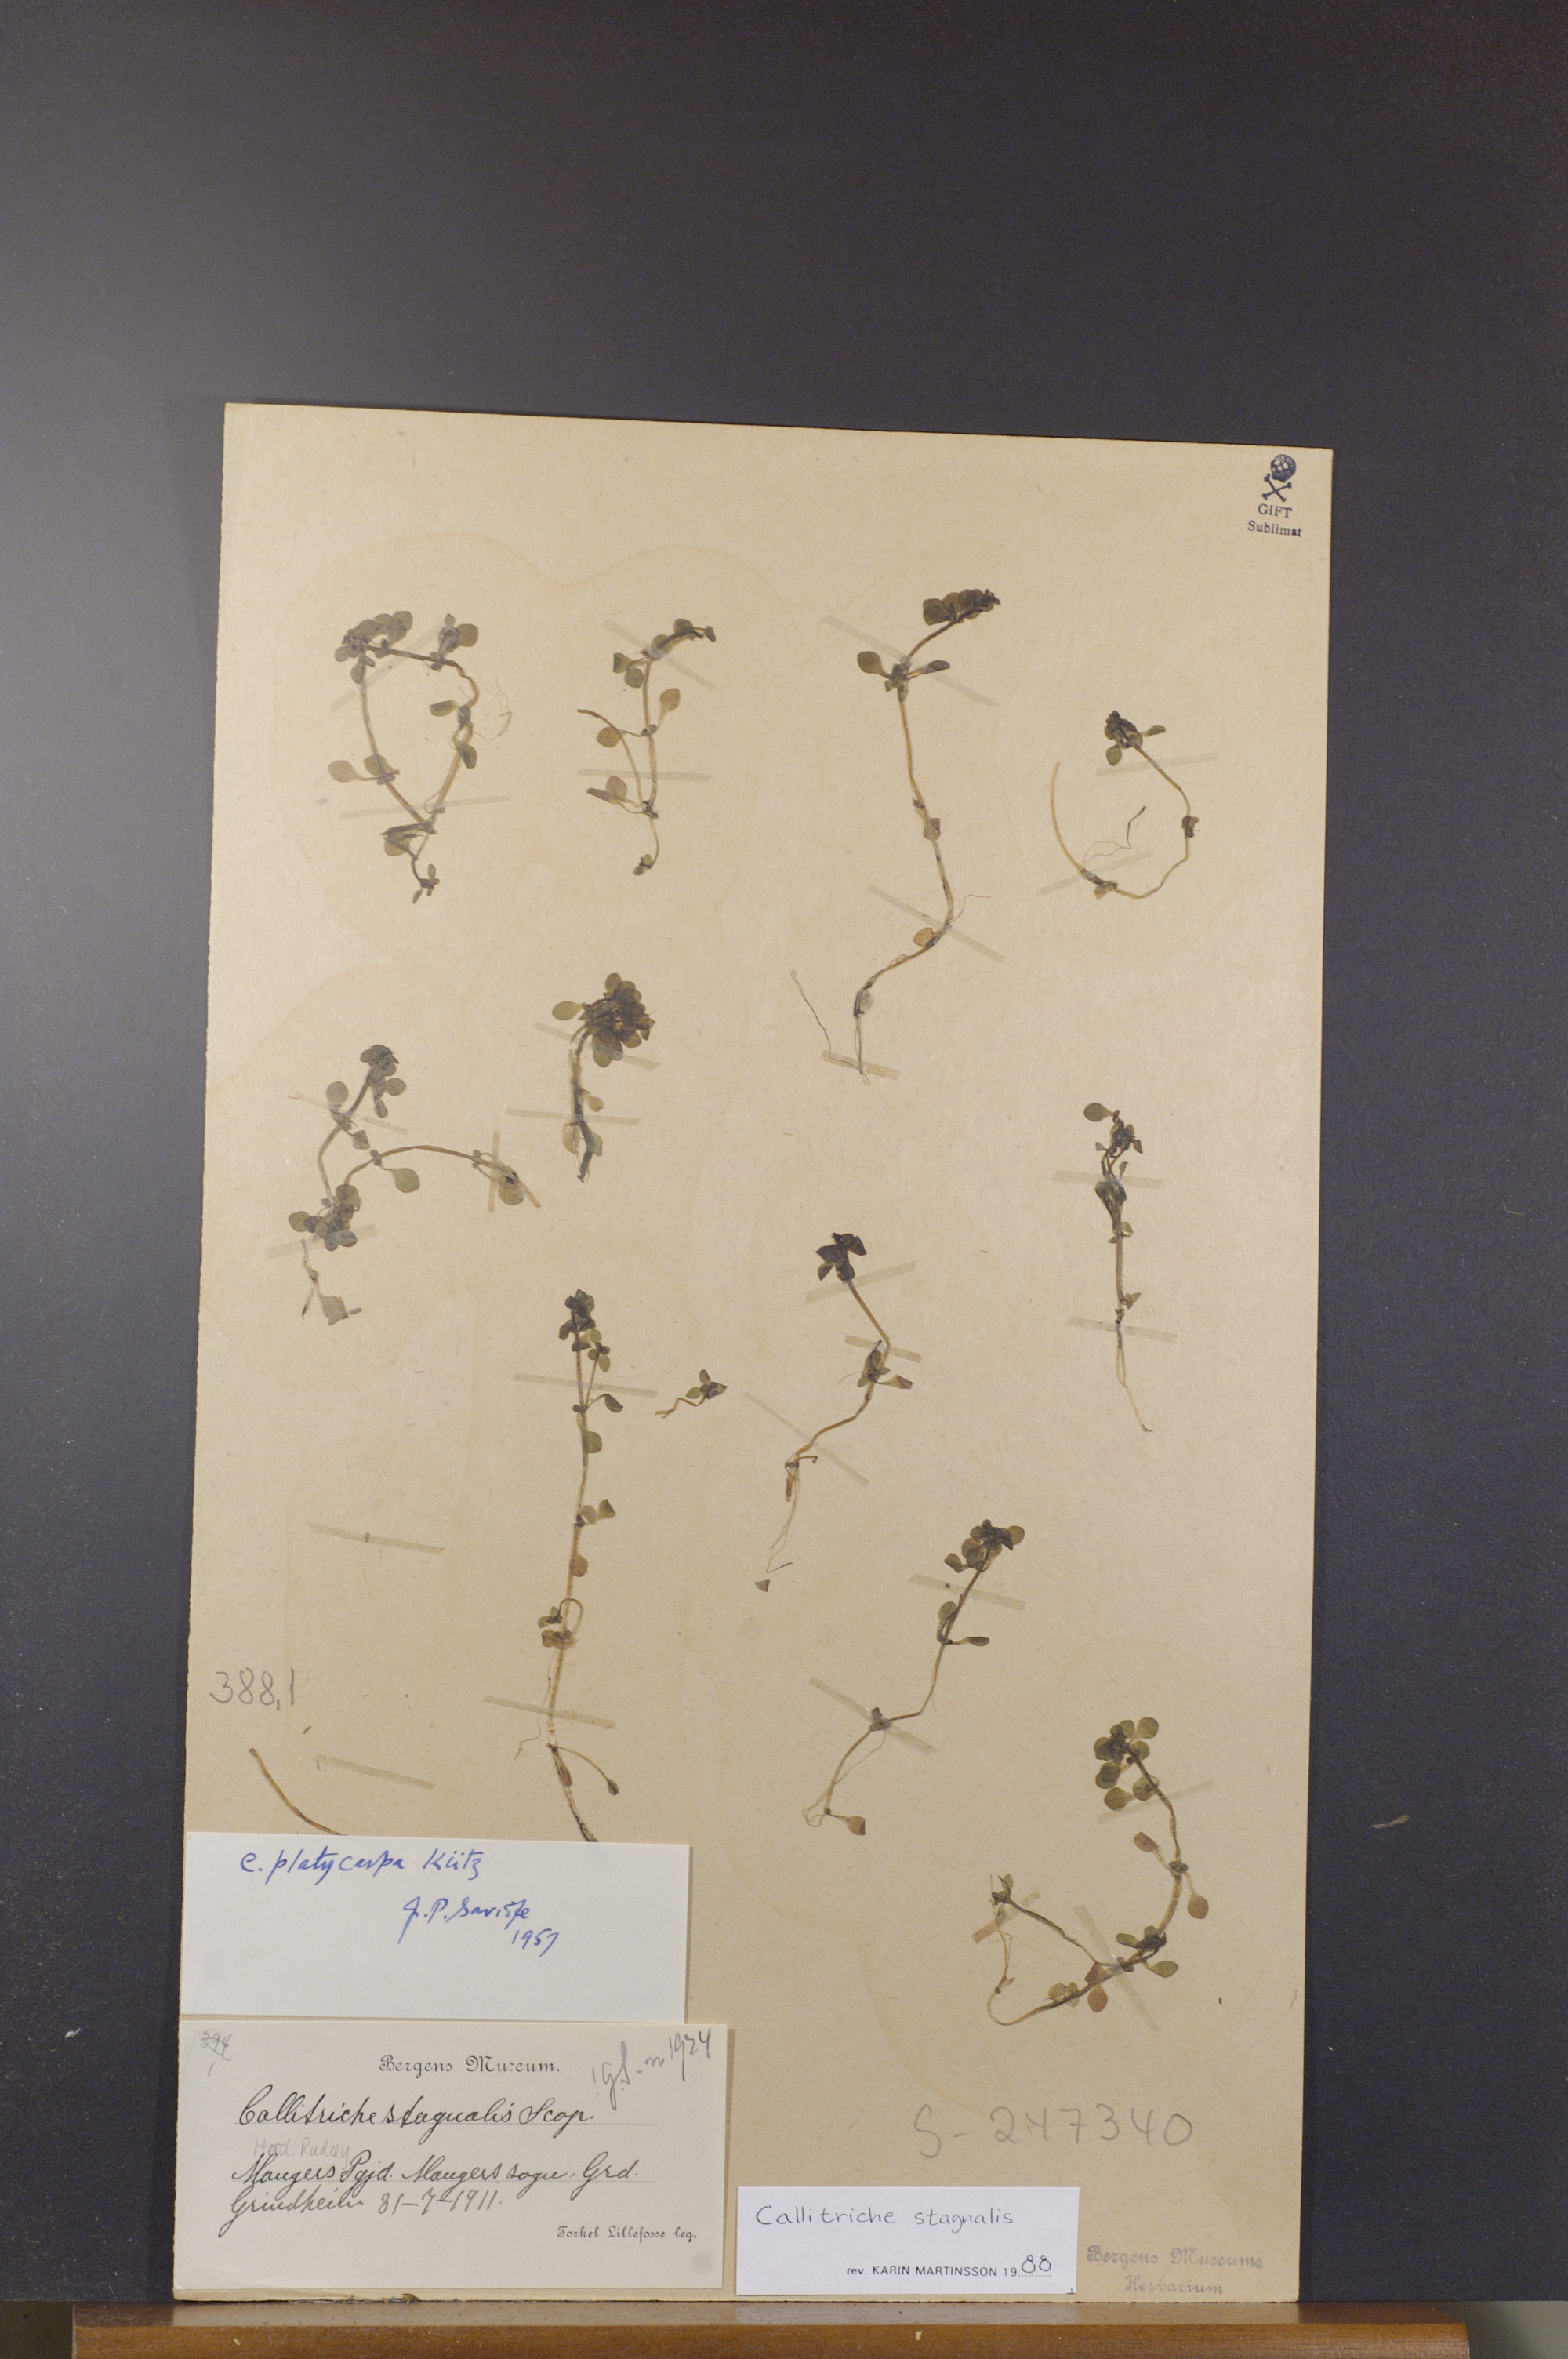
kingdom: Plantae
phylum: Tracheophyta
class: Magnoliopsida
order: Lamiales
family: Plantaginaceae
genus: Callitriche
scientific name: Callitriche stagnalis
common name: Common water-starwort
